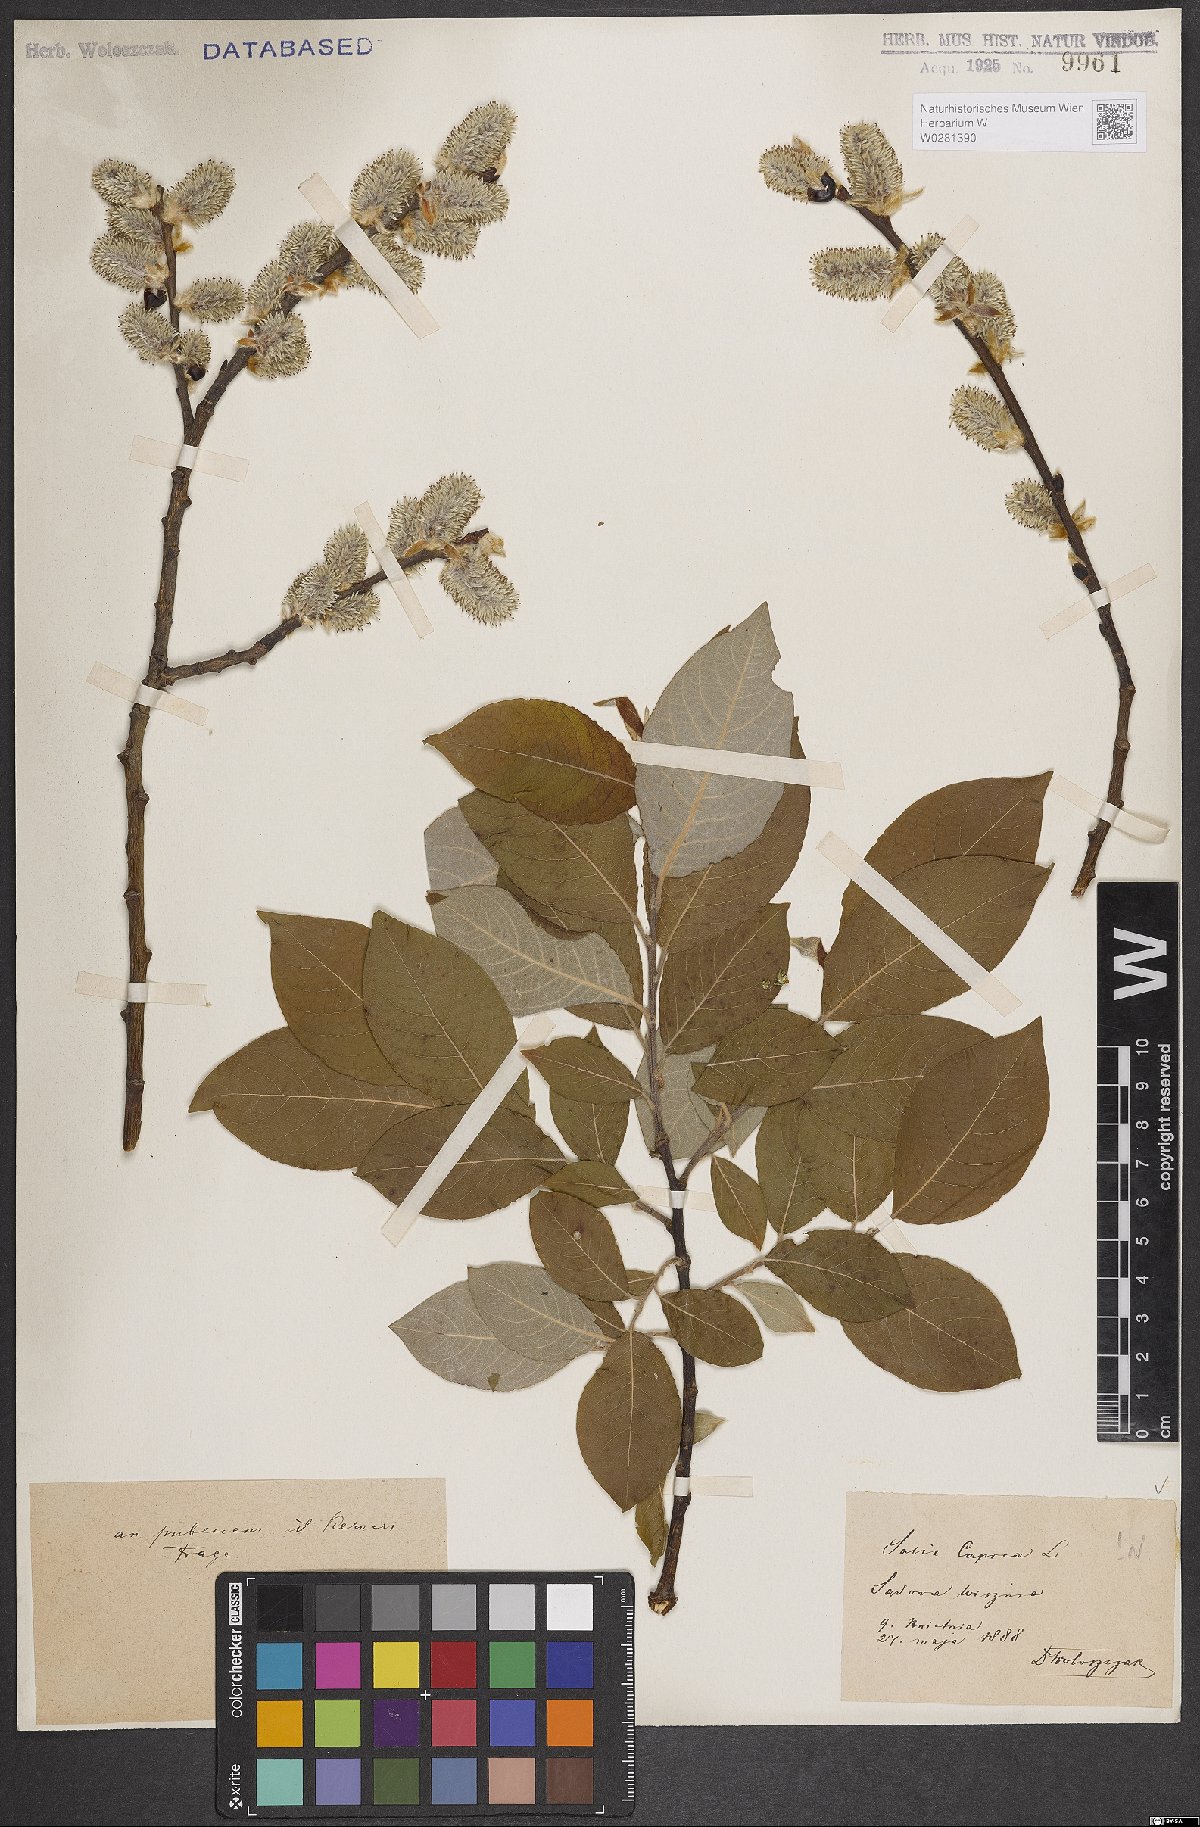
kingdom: Plantae
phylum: Tracheophyta
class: Magnoliopsida
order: Malpighiales
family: Salicaceae
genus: Salix
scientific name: Salix caprea
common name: Goat willow
